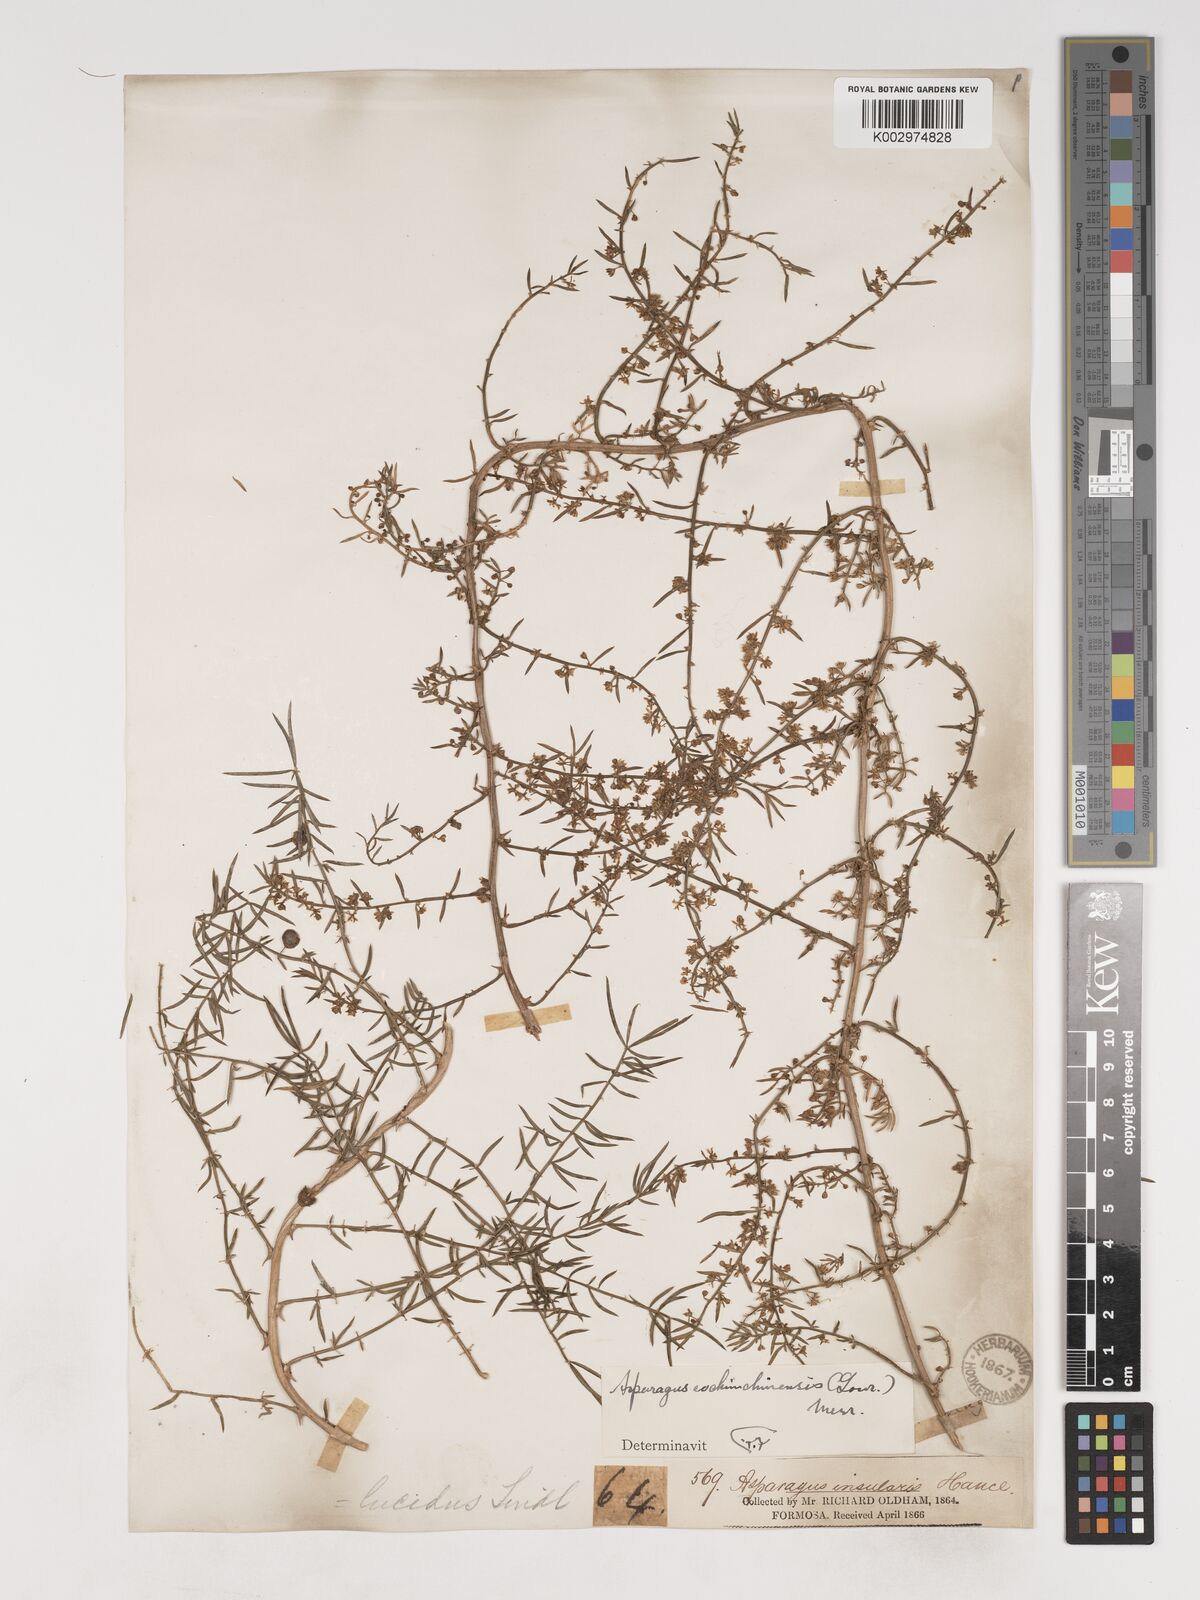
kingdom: Plantae
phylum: Tracheophyta
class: Liliopsida
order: Asparagales
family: Asparagaceae
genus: Asparagus
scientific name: Asparagus cochinchinensis
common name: Chinese asparagus
